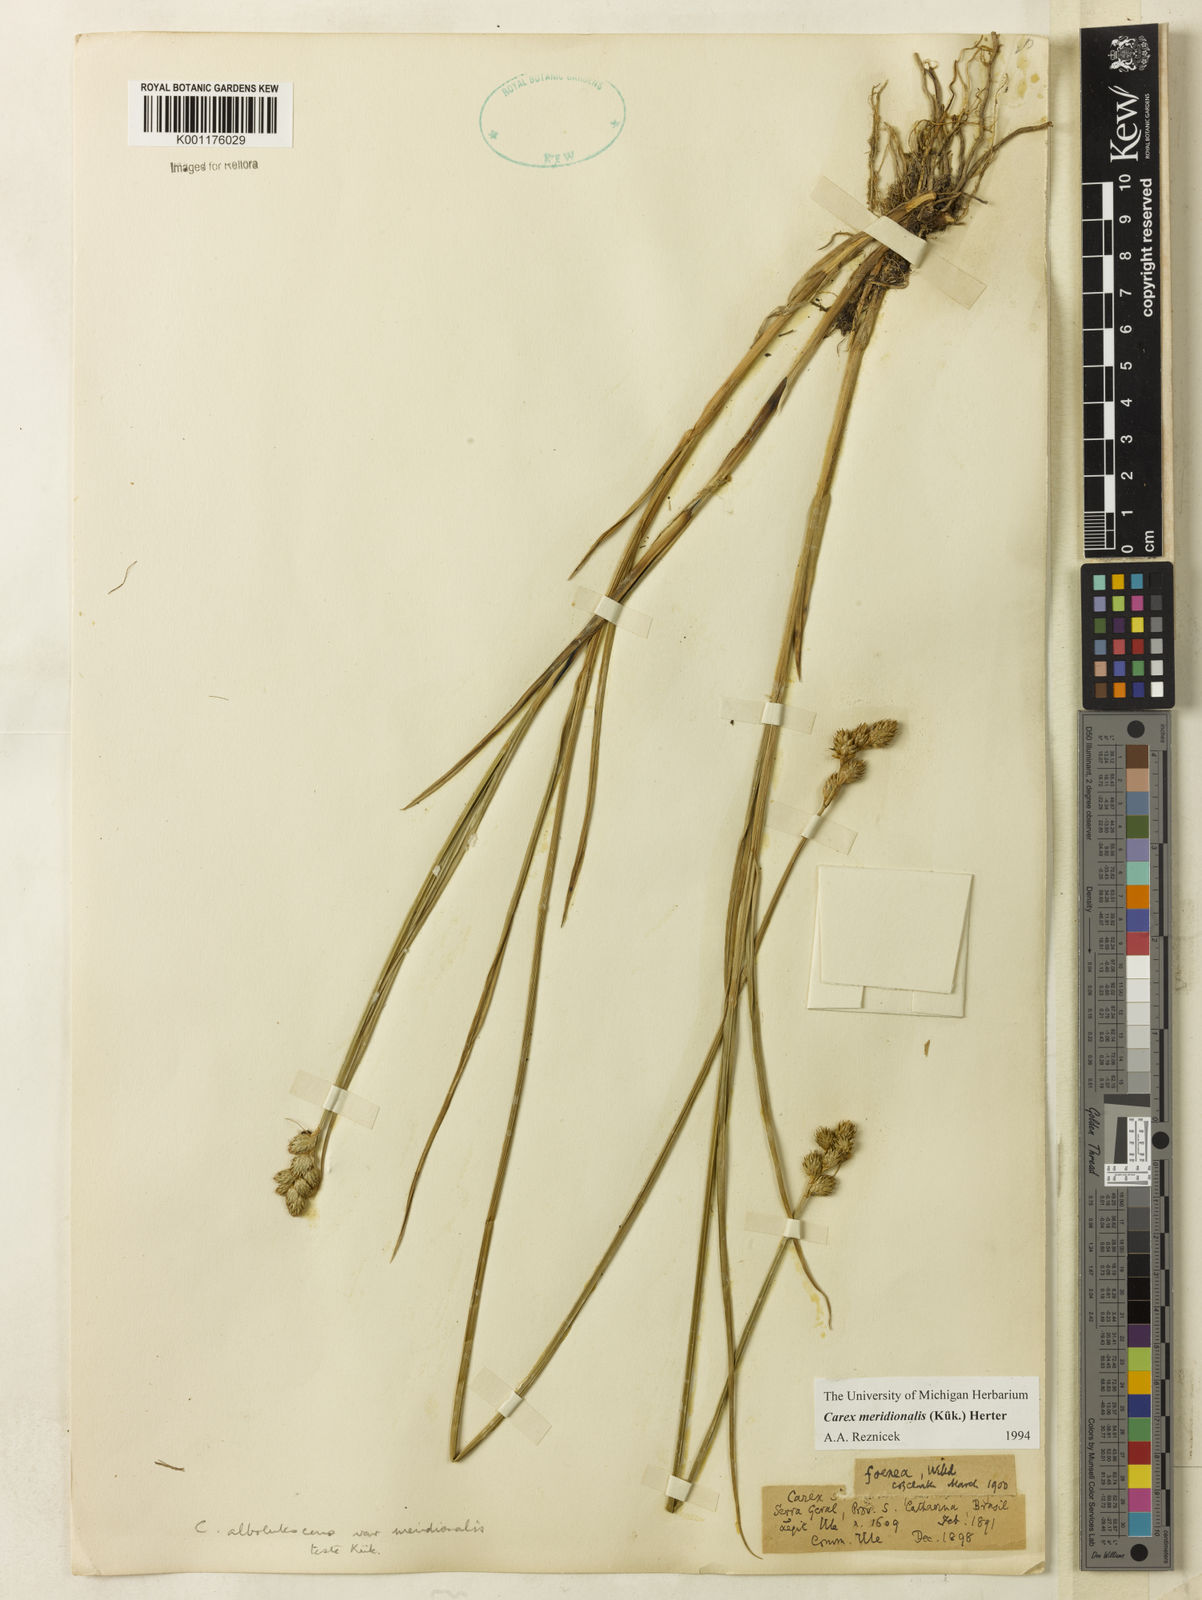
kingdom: Plantae
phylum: Tracheophyta
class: Liliopsida
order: Poales
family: Cyperaceae
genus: Carex
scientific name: Carex meridionalis
